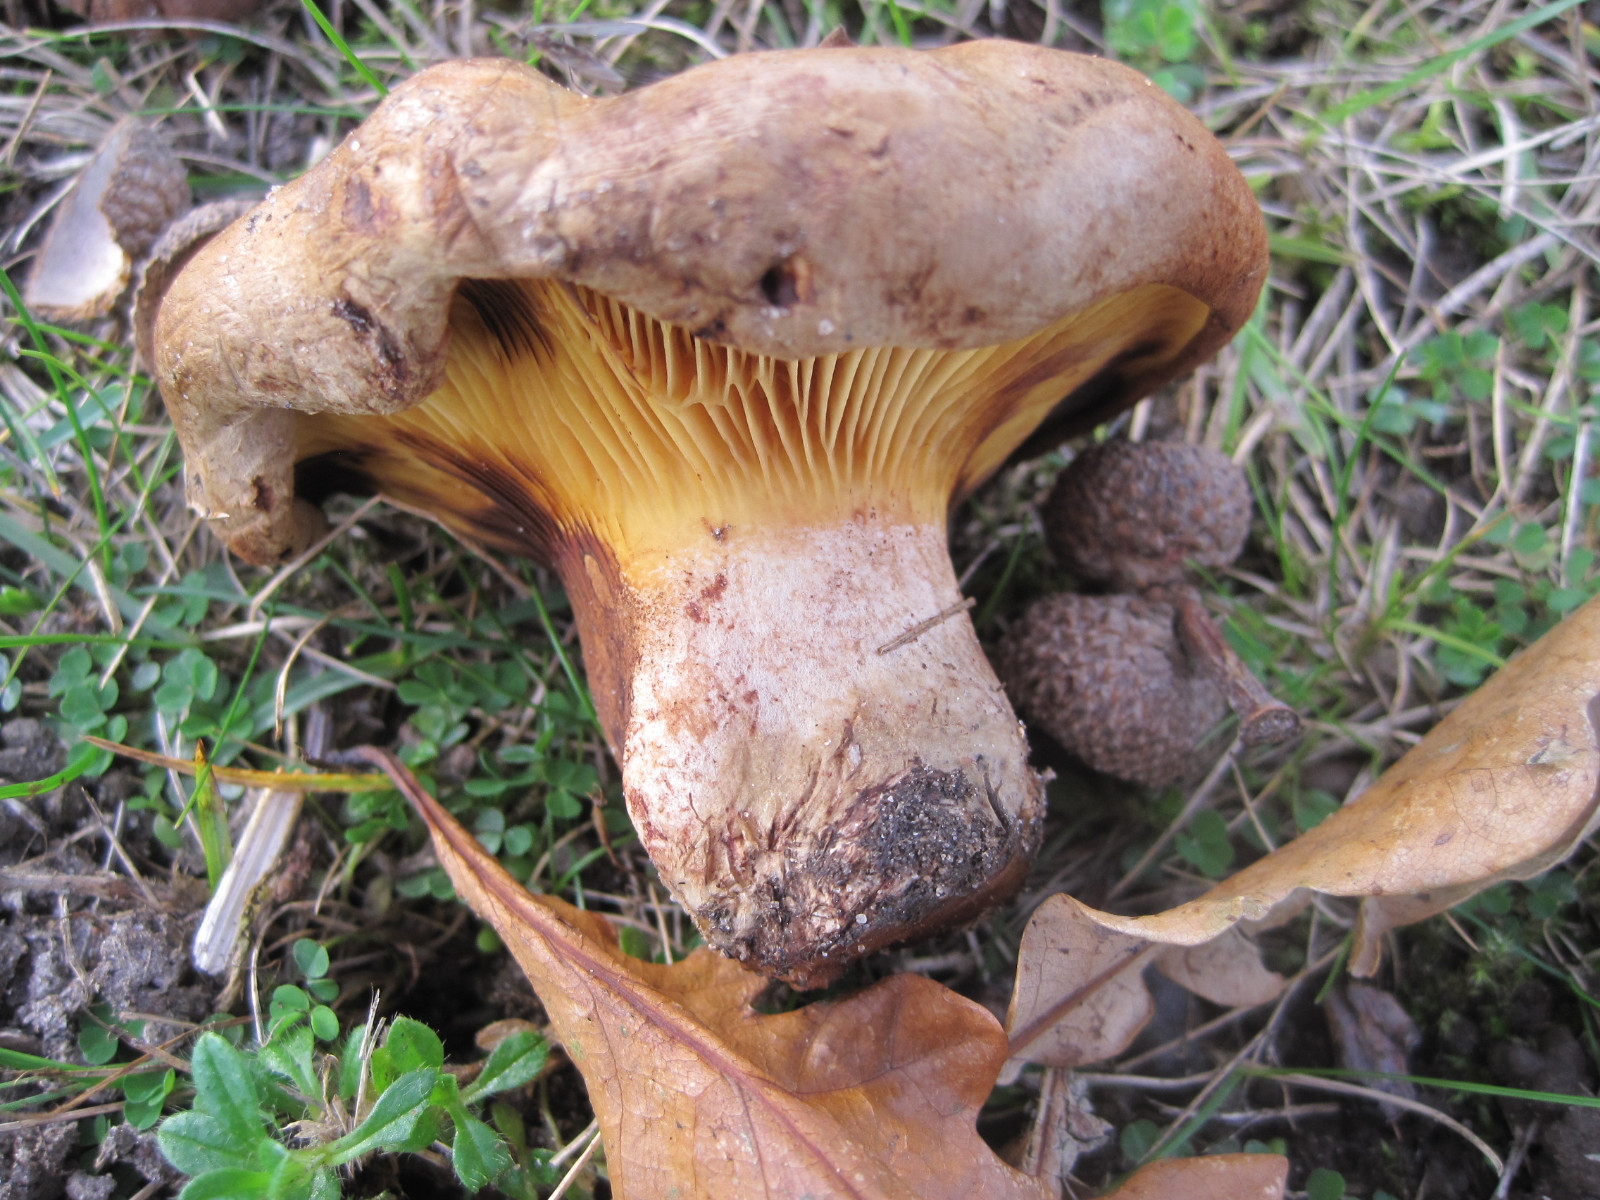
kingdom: Fungi
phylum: Basidiomycota
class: Agaricomycetes
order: Boletales
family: Paxillaceae
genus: Paxillus
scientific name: Paxillus ammoniavirescens
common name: olivensporet netbladhat
